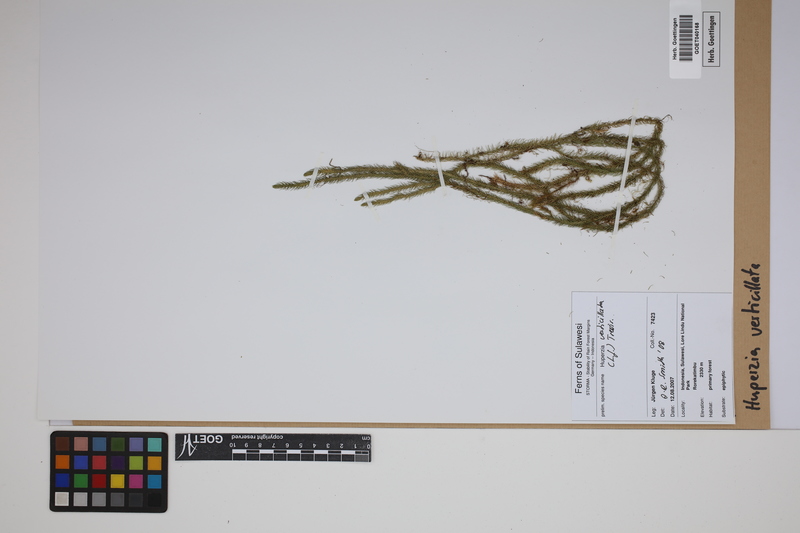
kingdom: Plantae
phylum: Tracheophyta
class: Lycopodiopsida
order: Lycopodiales
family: Lycopodiaceae
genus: Phlegmariurus
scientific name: Phlegmariurus verticillatus
